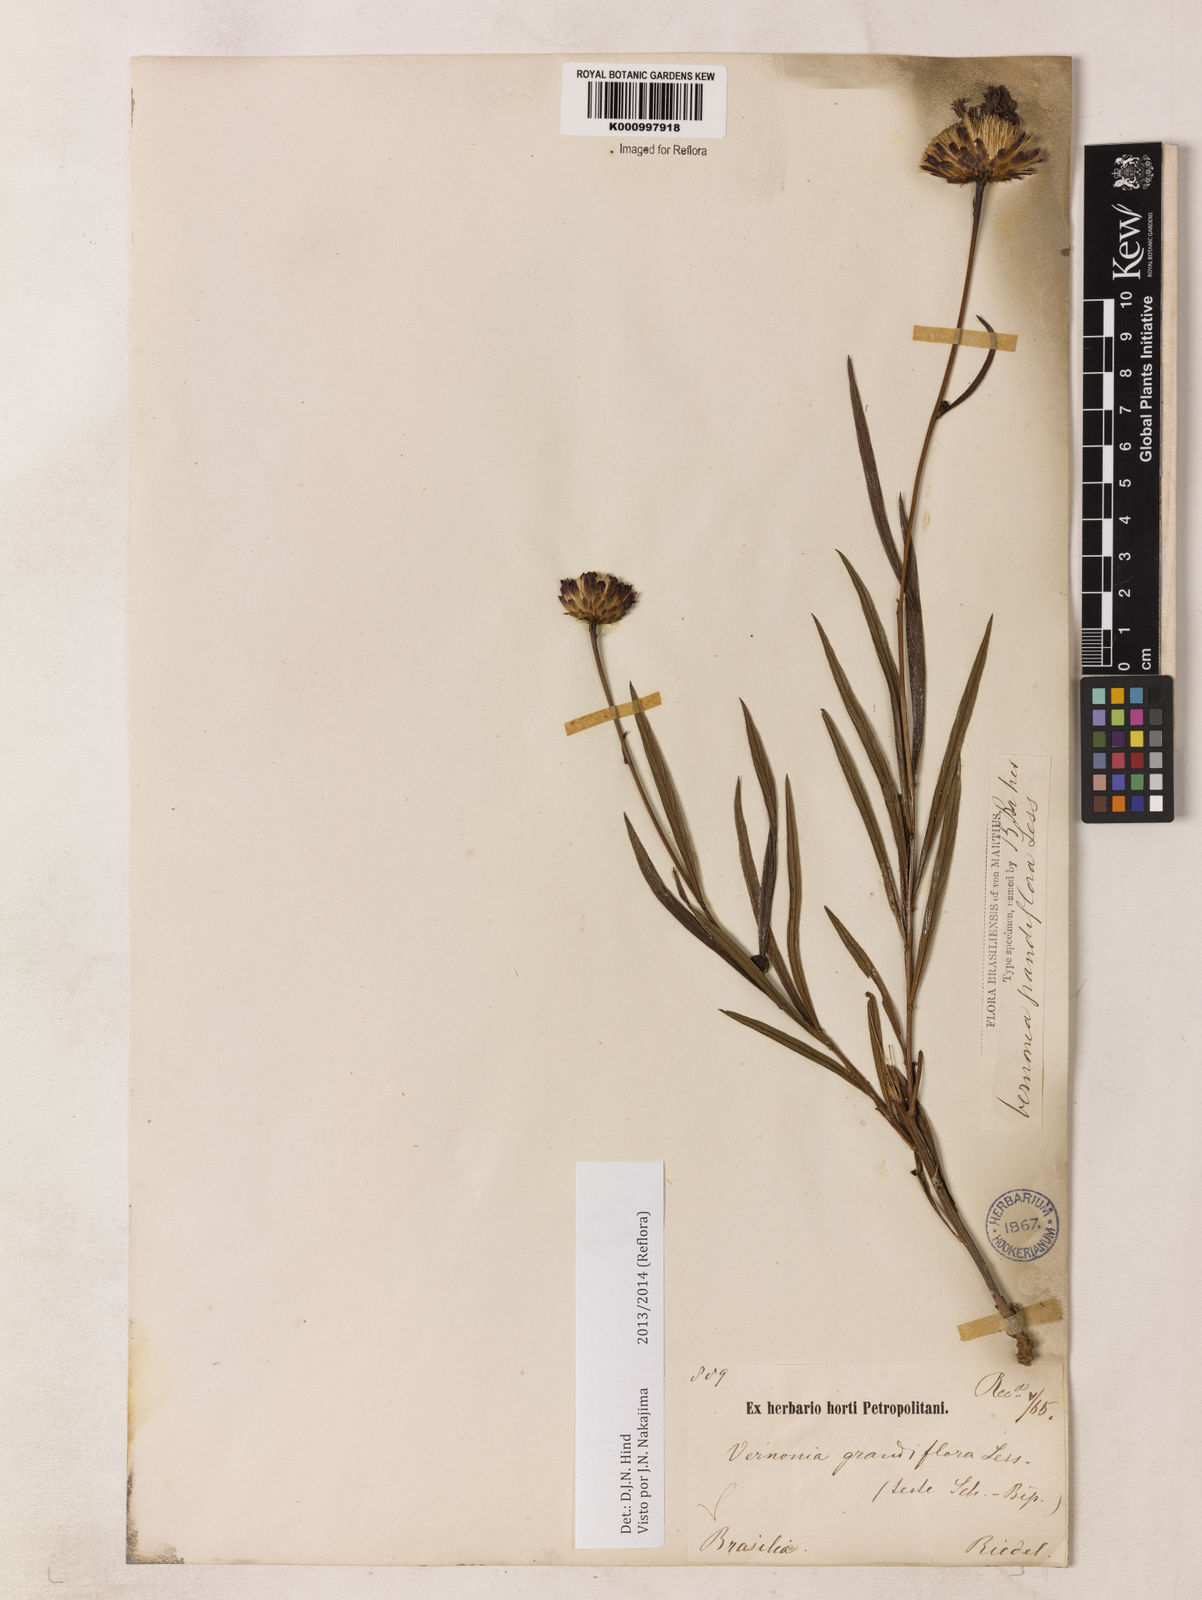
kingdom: Plantae
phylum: Tracheophyta
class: Magnoliopsida
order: Asterales
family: Asteraceae
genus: Lessingianthus
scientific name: Lessingianthus grandiflorus
